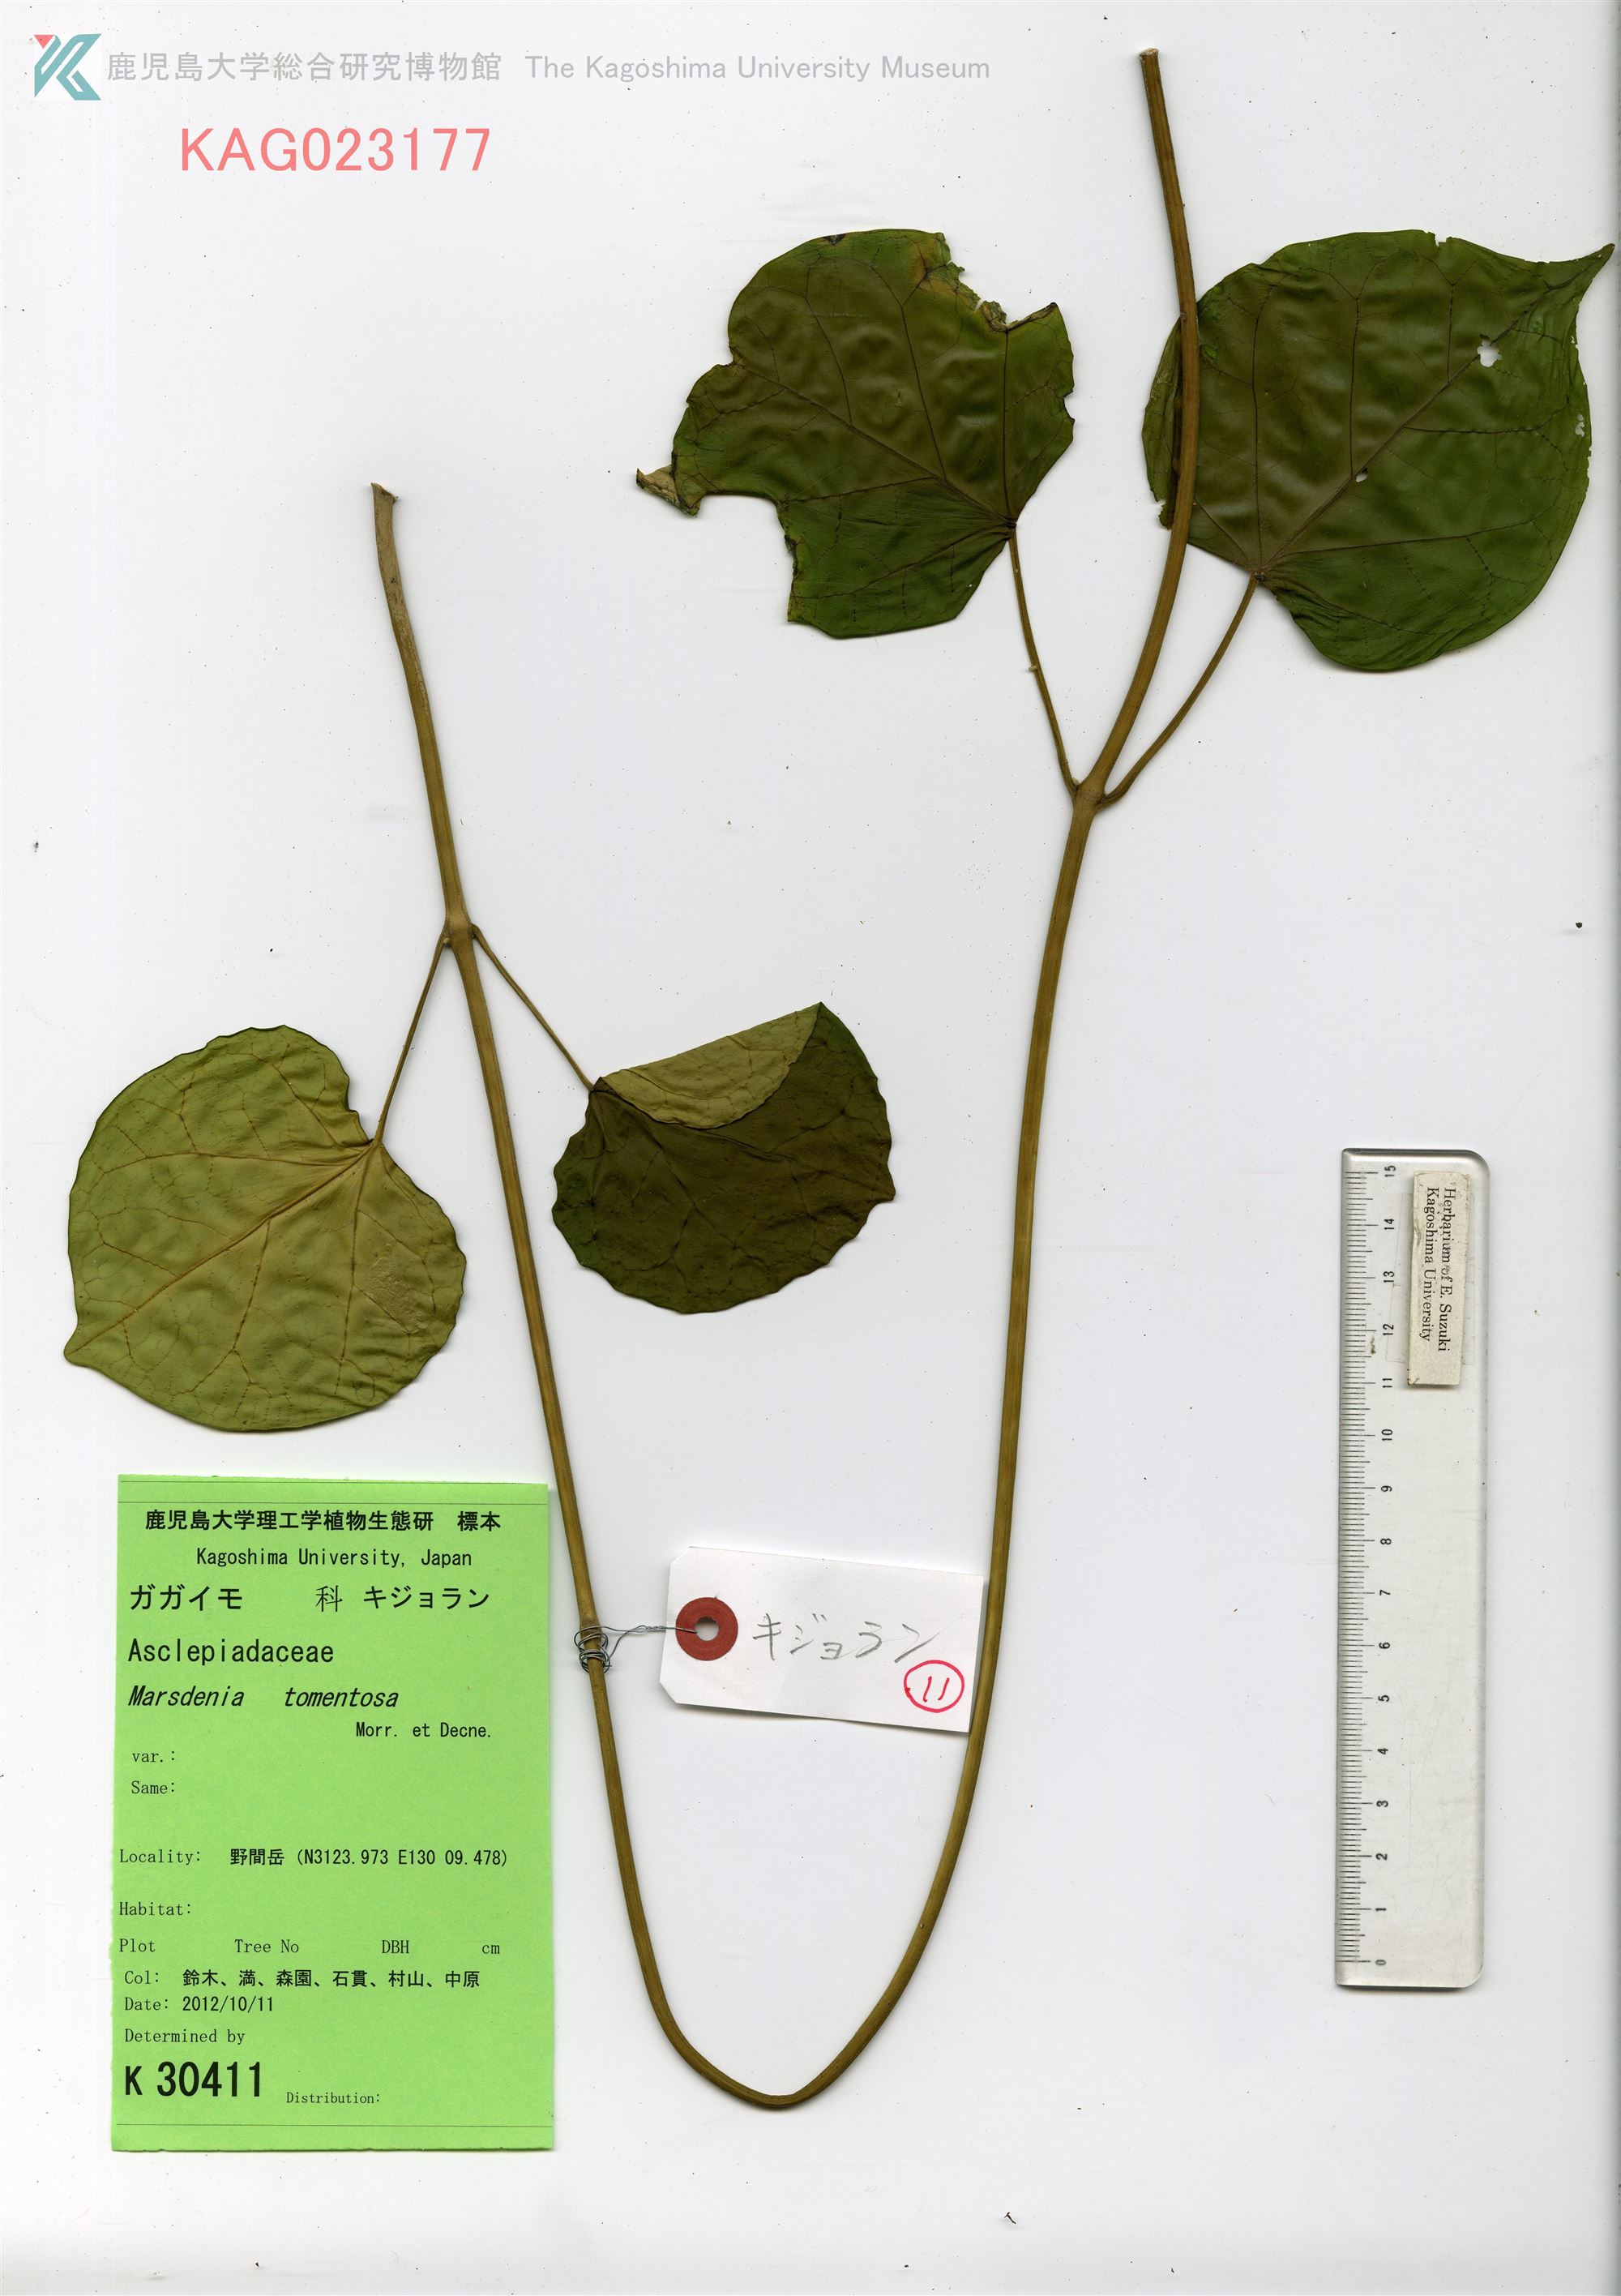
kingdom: Plantae
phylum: Tracheophyta
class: Magnoliopsida
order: Gentianales
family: Apocynaceae
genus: Sinomarsdenia
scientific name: Sinomarsdenia tomentosa
